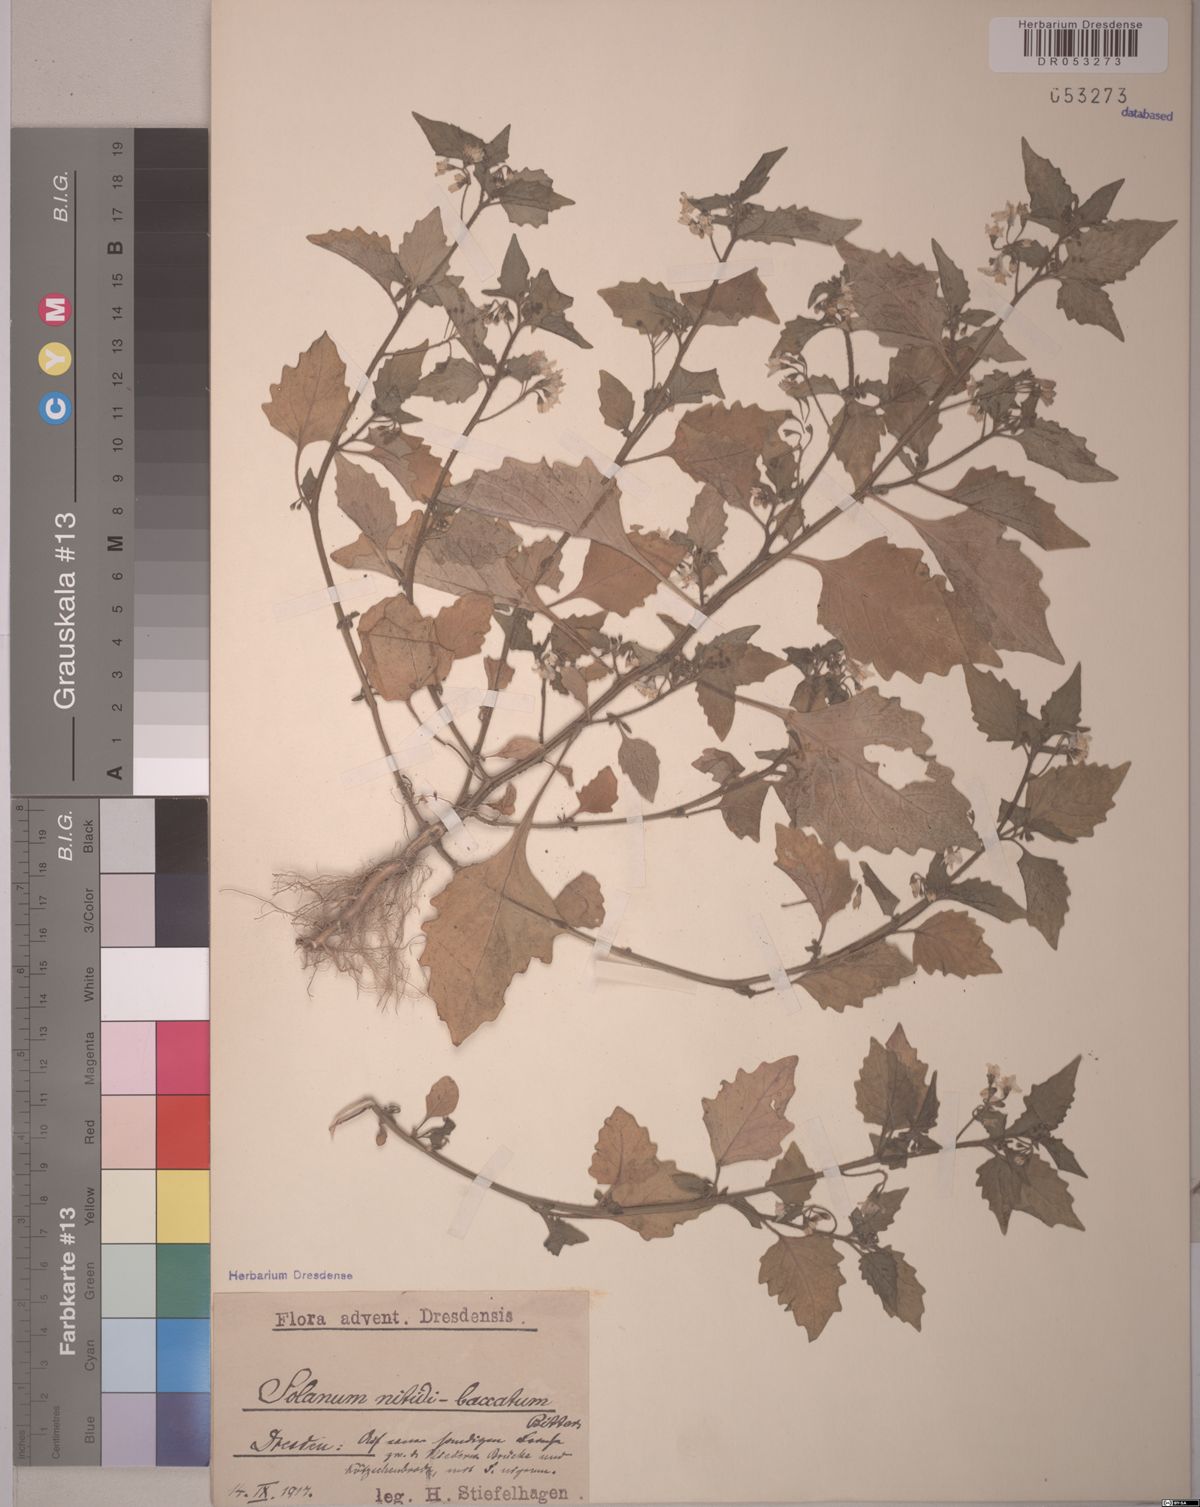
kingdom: Plantae
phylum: Tracheophyta
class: Magnoliopsida
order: Solanales
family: Solanaceae
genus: Solanum
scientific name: Solanum nitidibaccatum
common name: Hairy nightshade
